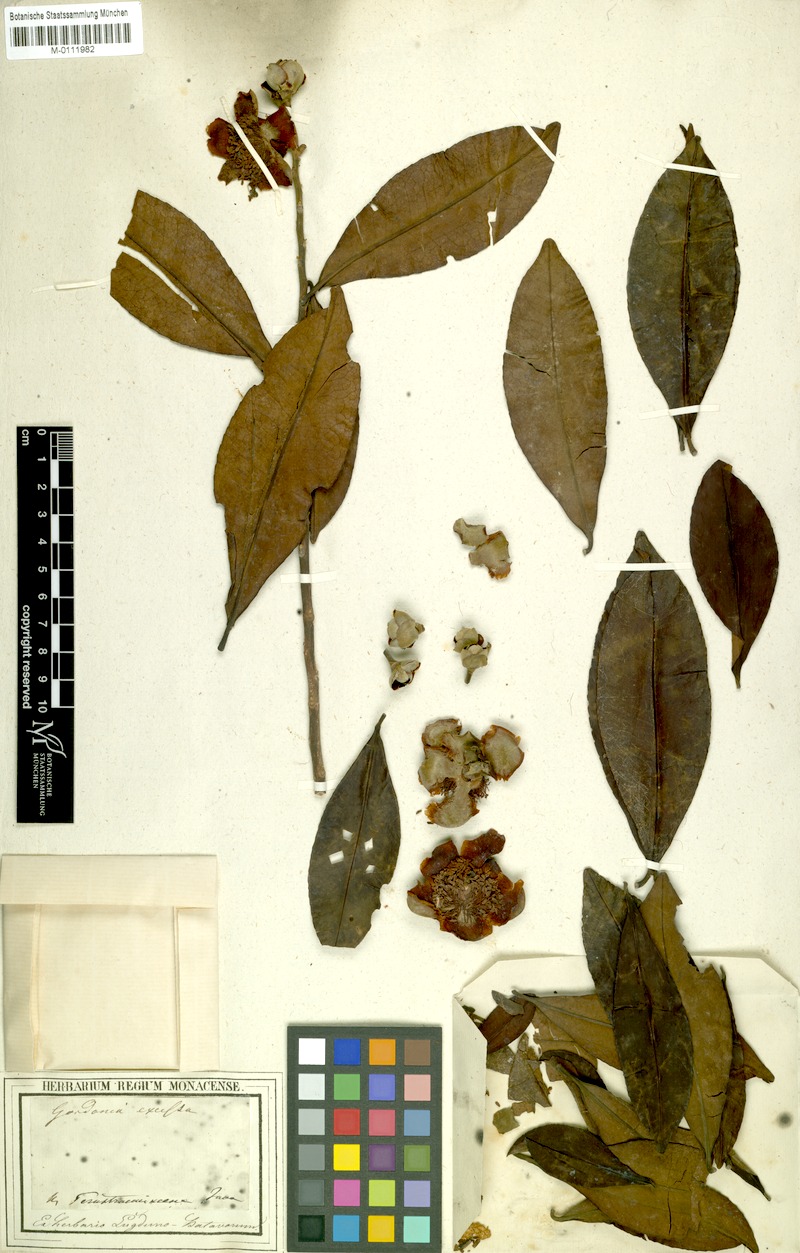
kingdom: Plantae
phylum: Tracheophyta
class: Magnoliopsida
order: Ericales
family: Theaceae
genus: Polyspora
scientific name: Polyspora excelsa
